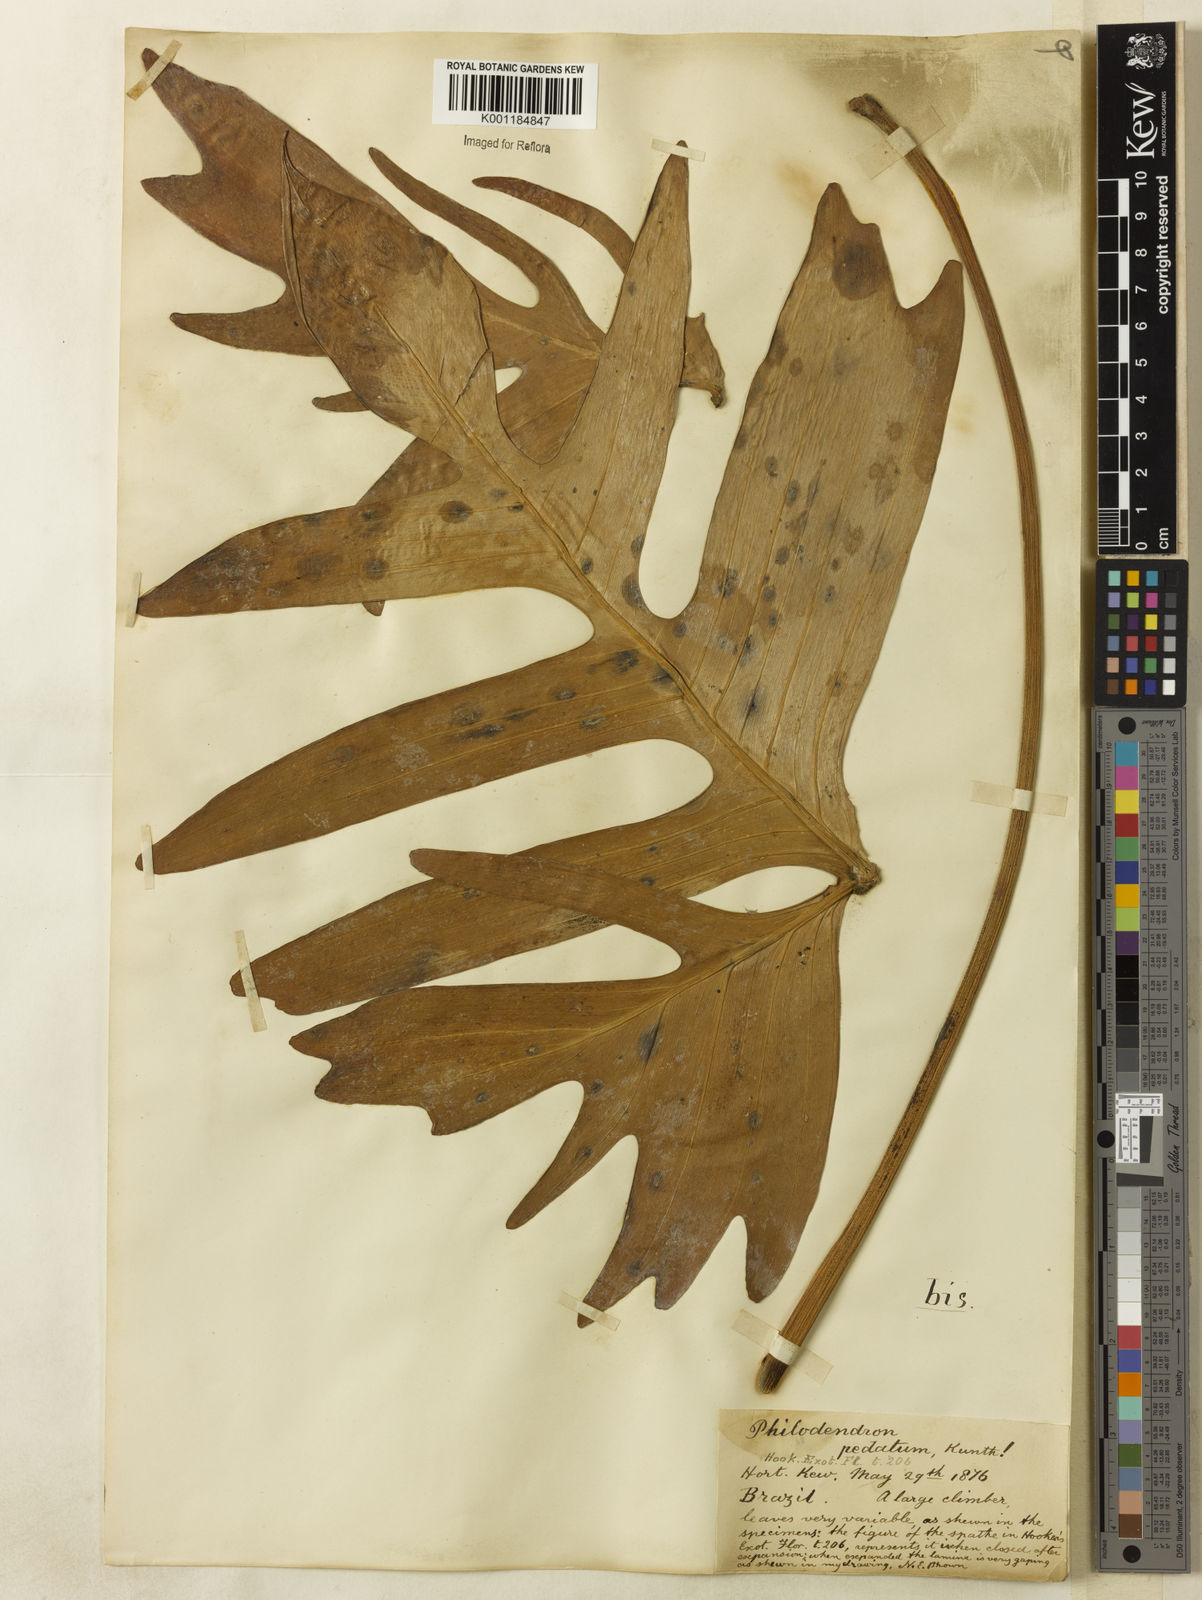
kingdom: Plantae
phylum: Tracheophyta
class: Liliopsida
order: Alismatales
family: Araceae
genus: Philodendron
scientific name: Philodendron pedatum
